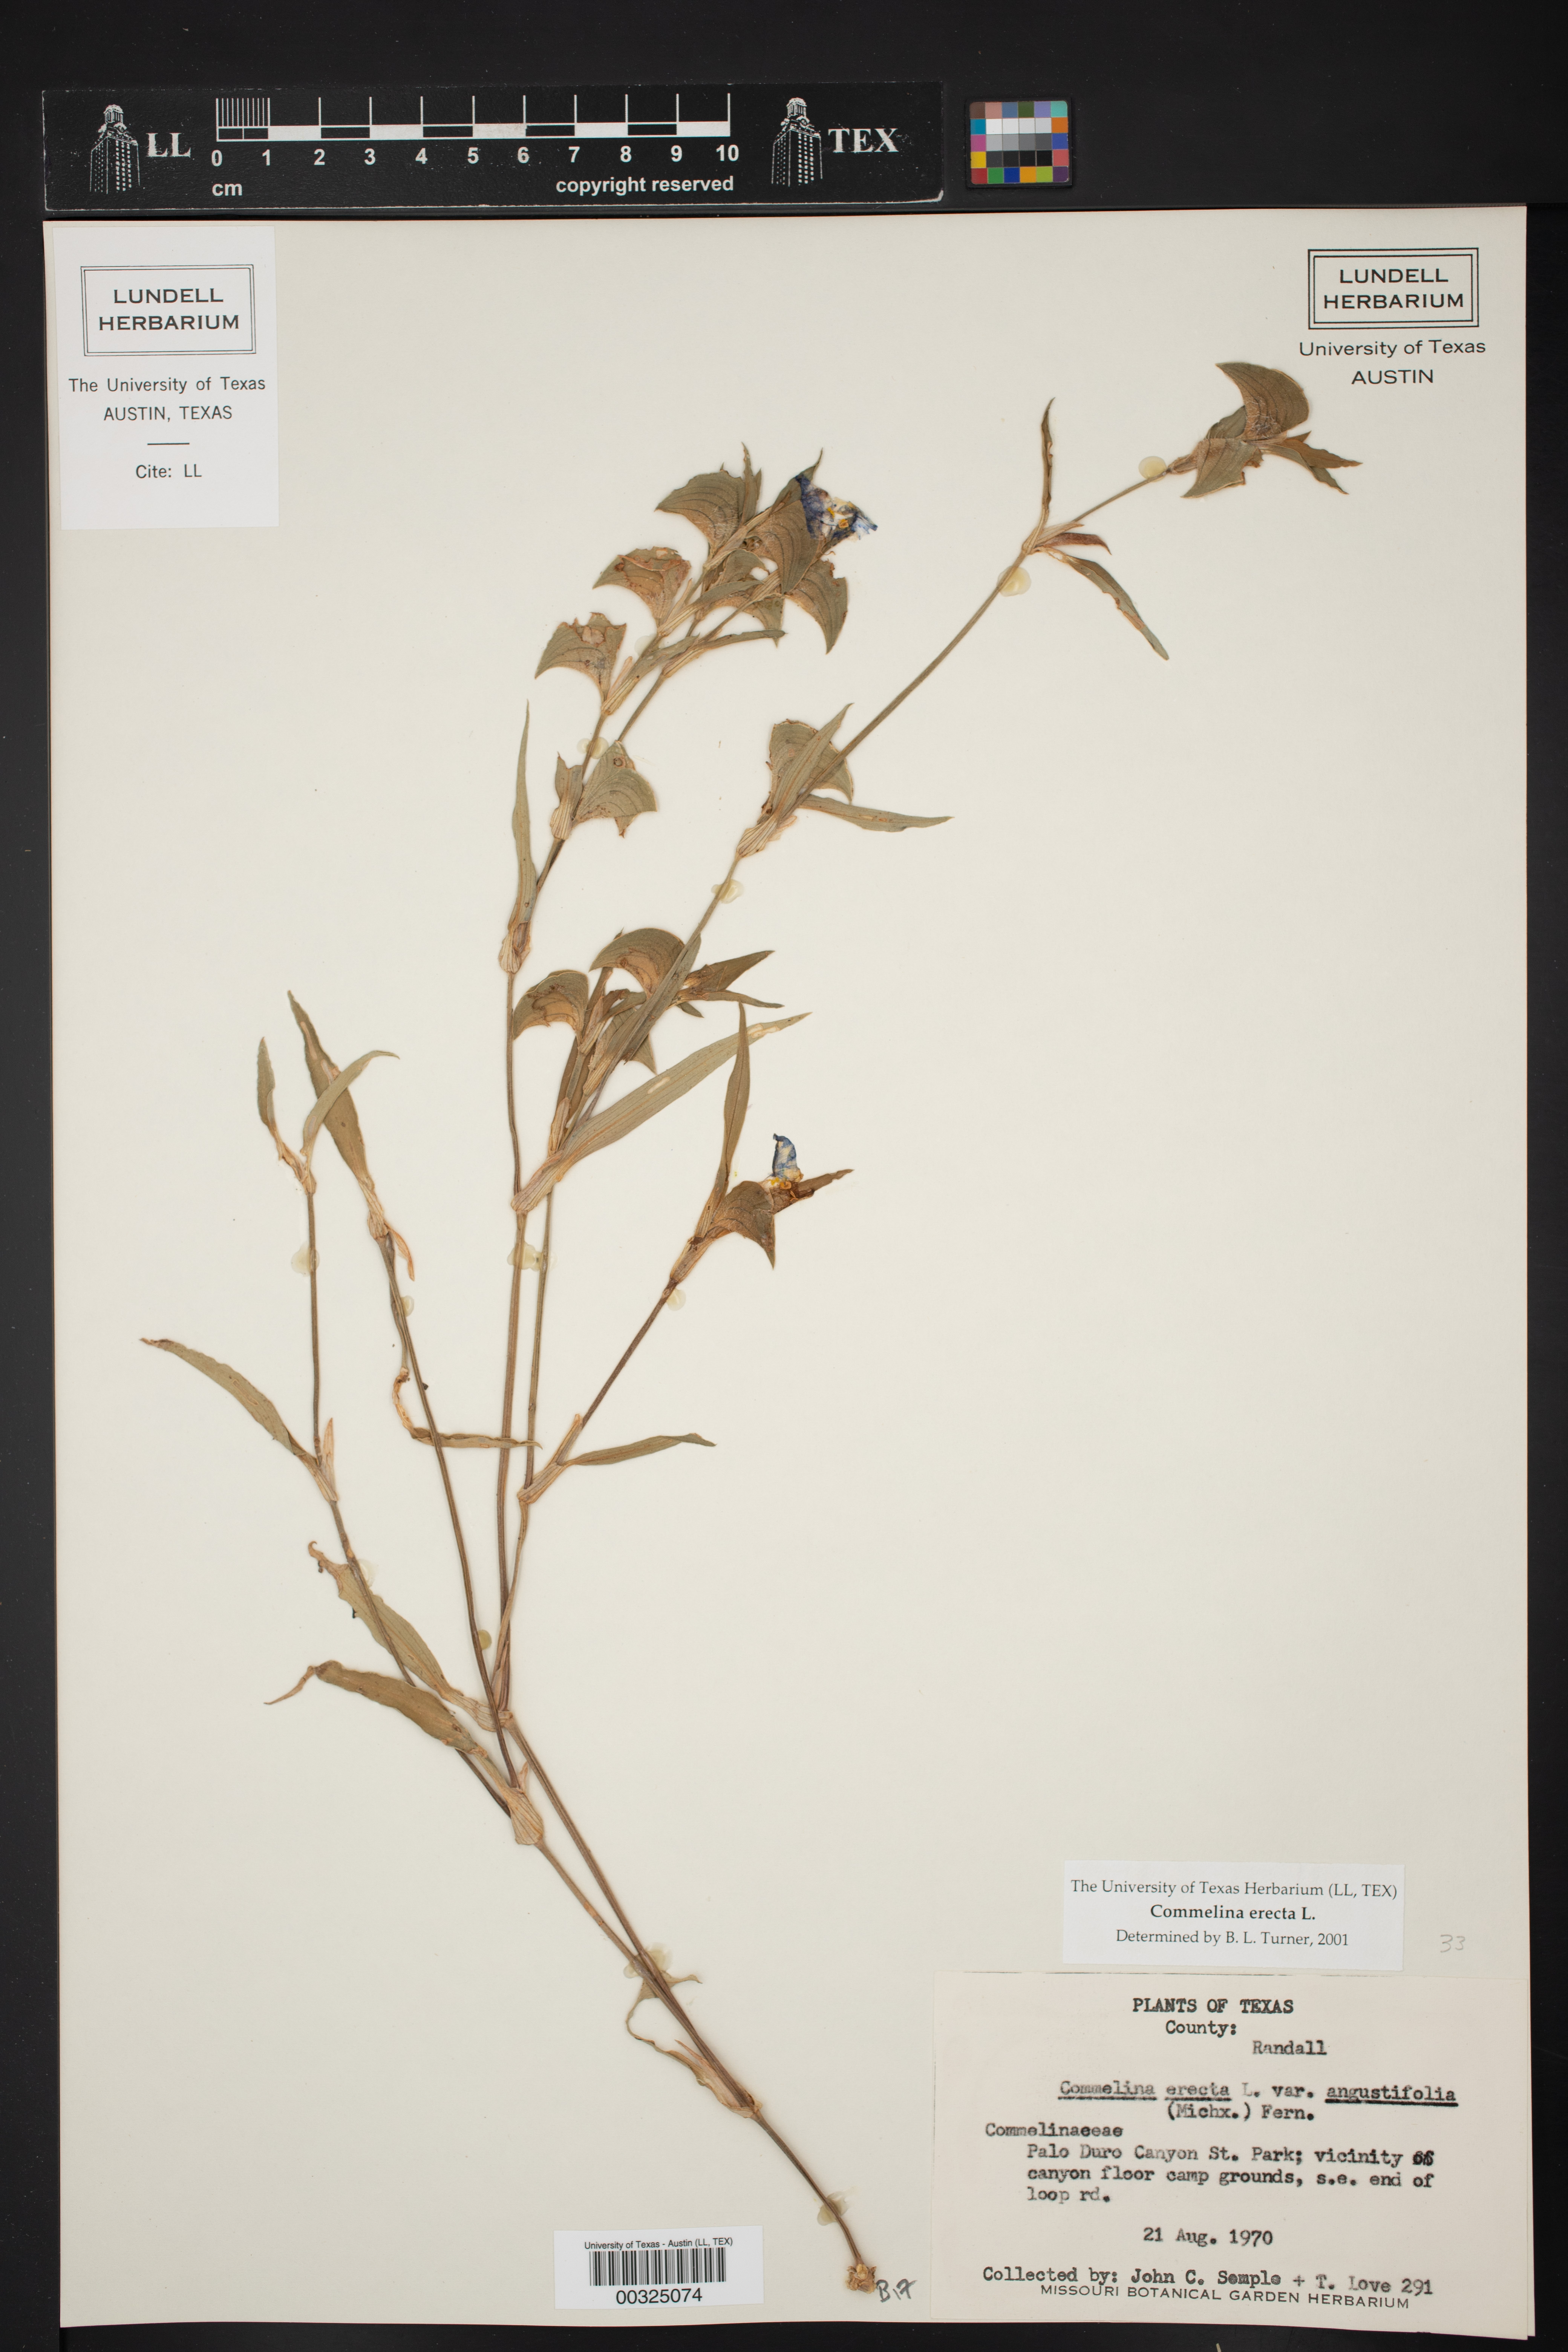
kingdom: Plantae
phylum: Tracheophyta
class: Liliopsida
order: Commelinales
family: Commelinaceae
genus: Commelina
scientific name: Commelina erecta
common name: Blousel blommetjie
